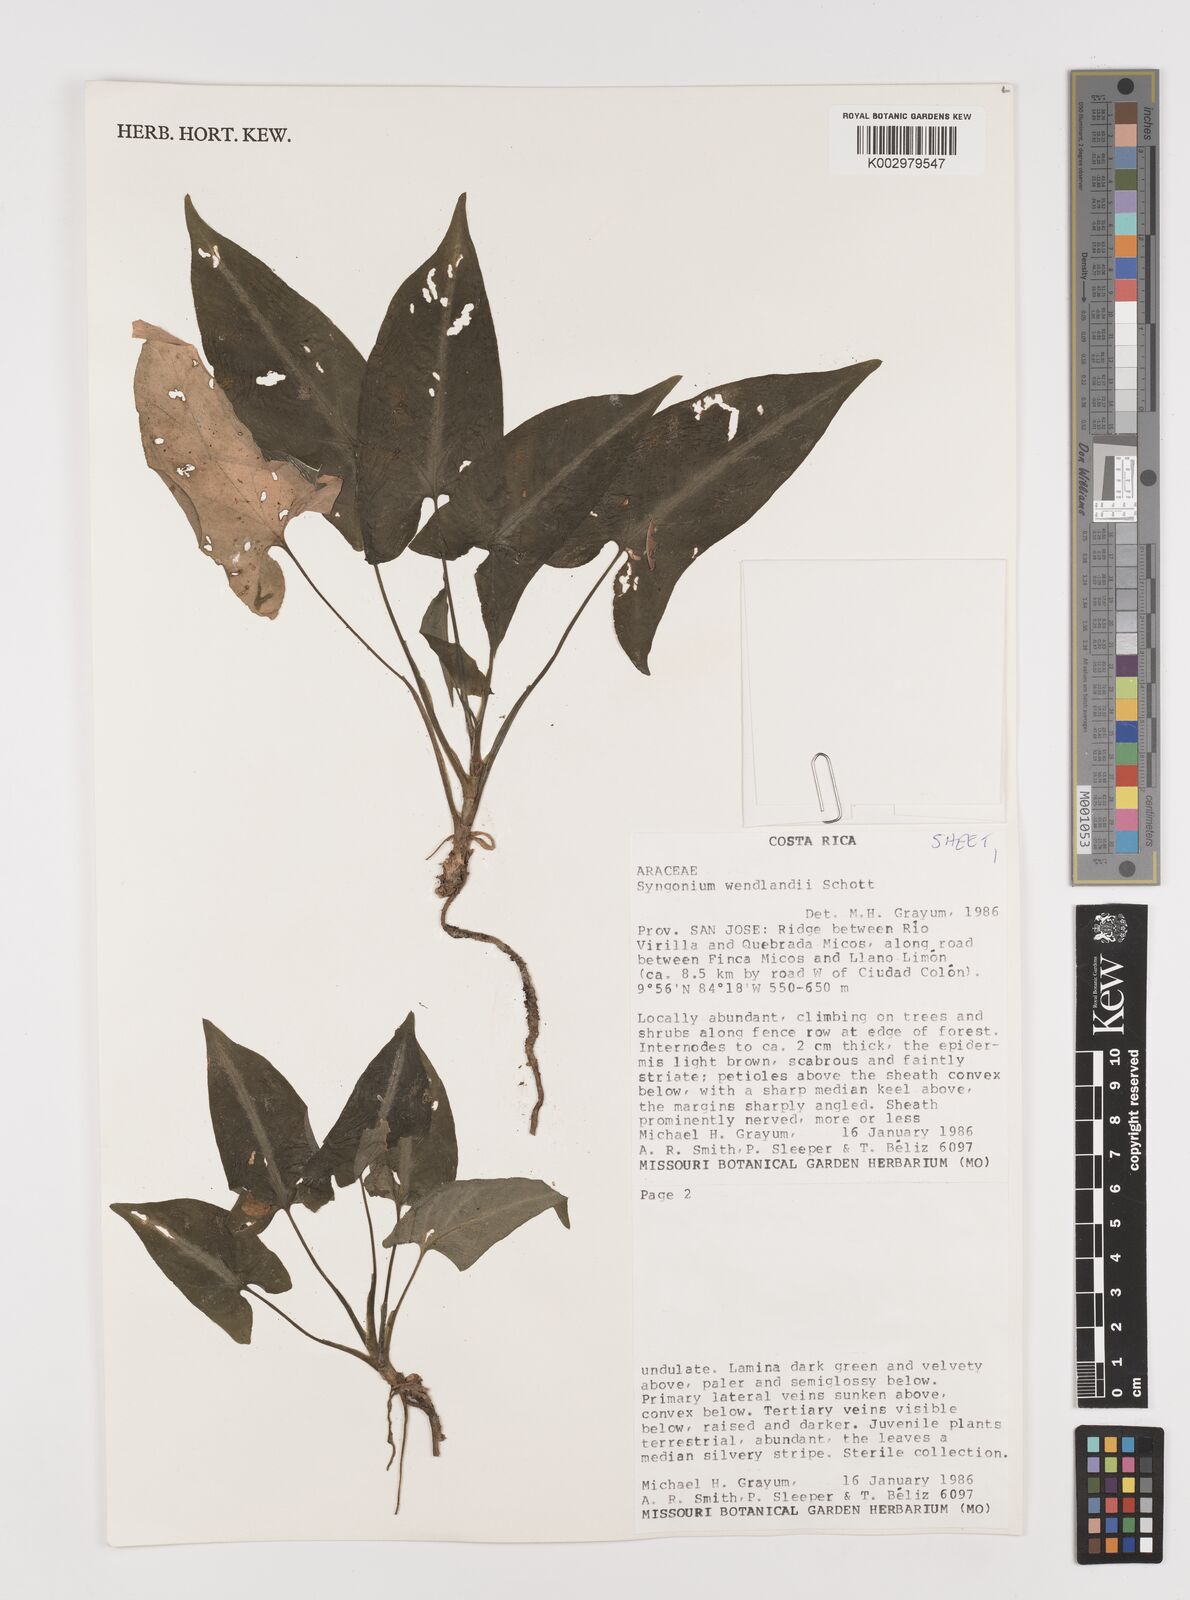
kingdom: Plantae
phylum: Tracheophyta
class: Liliopsida
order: Alismatales
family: Araceae
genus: Syngonium
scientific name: Syngonium wendlandii
